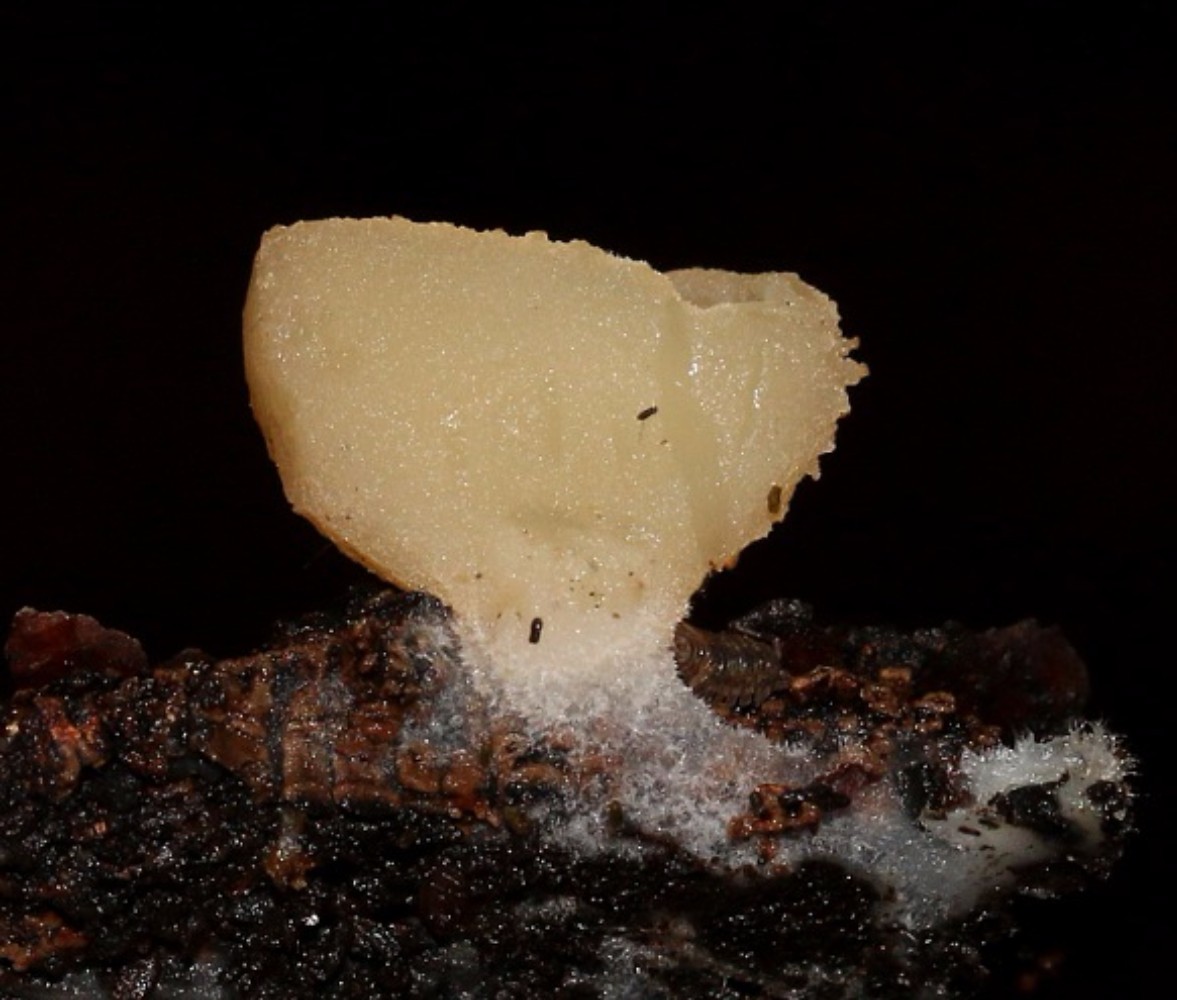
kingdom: Fungi
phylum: Ascomycota
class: Pezizomycetes
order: Pezizales
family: Pezizaceae
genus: Peziza
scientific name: Peziza varia
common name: Ved-bægersvamp
